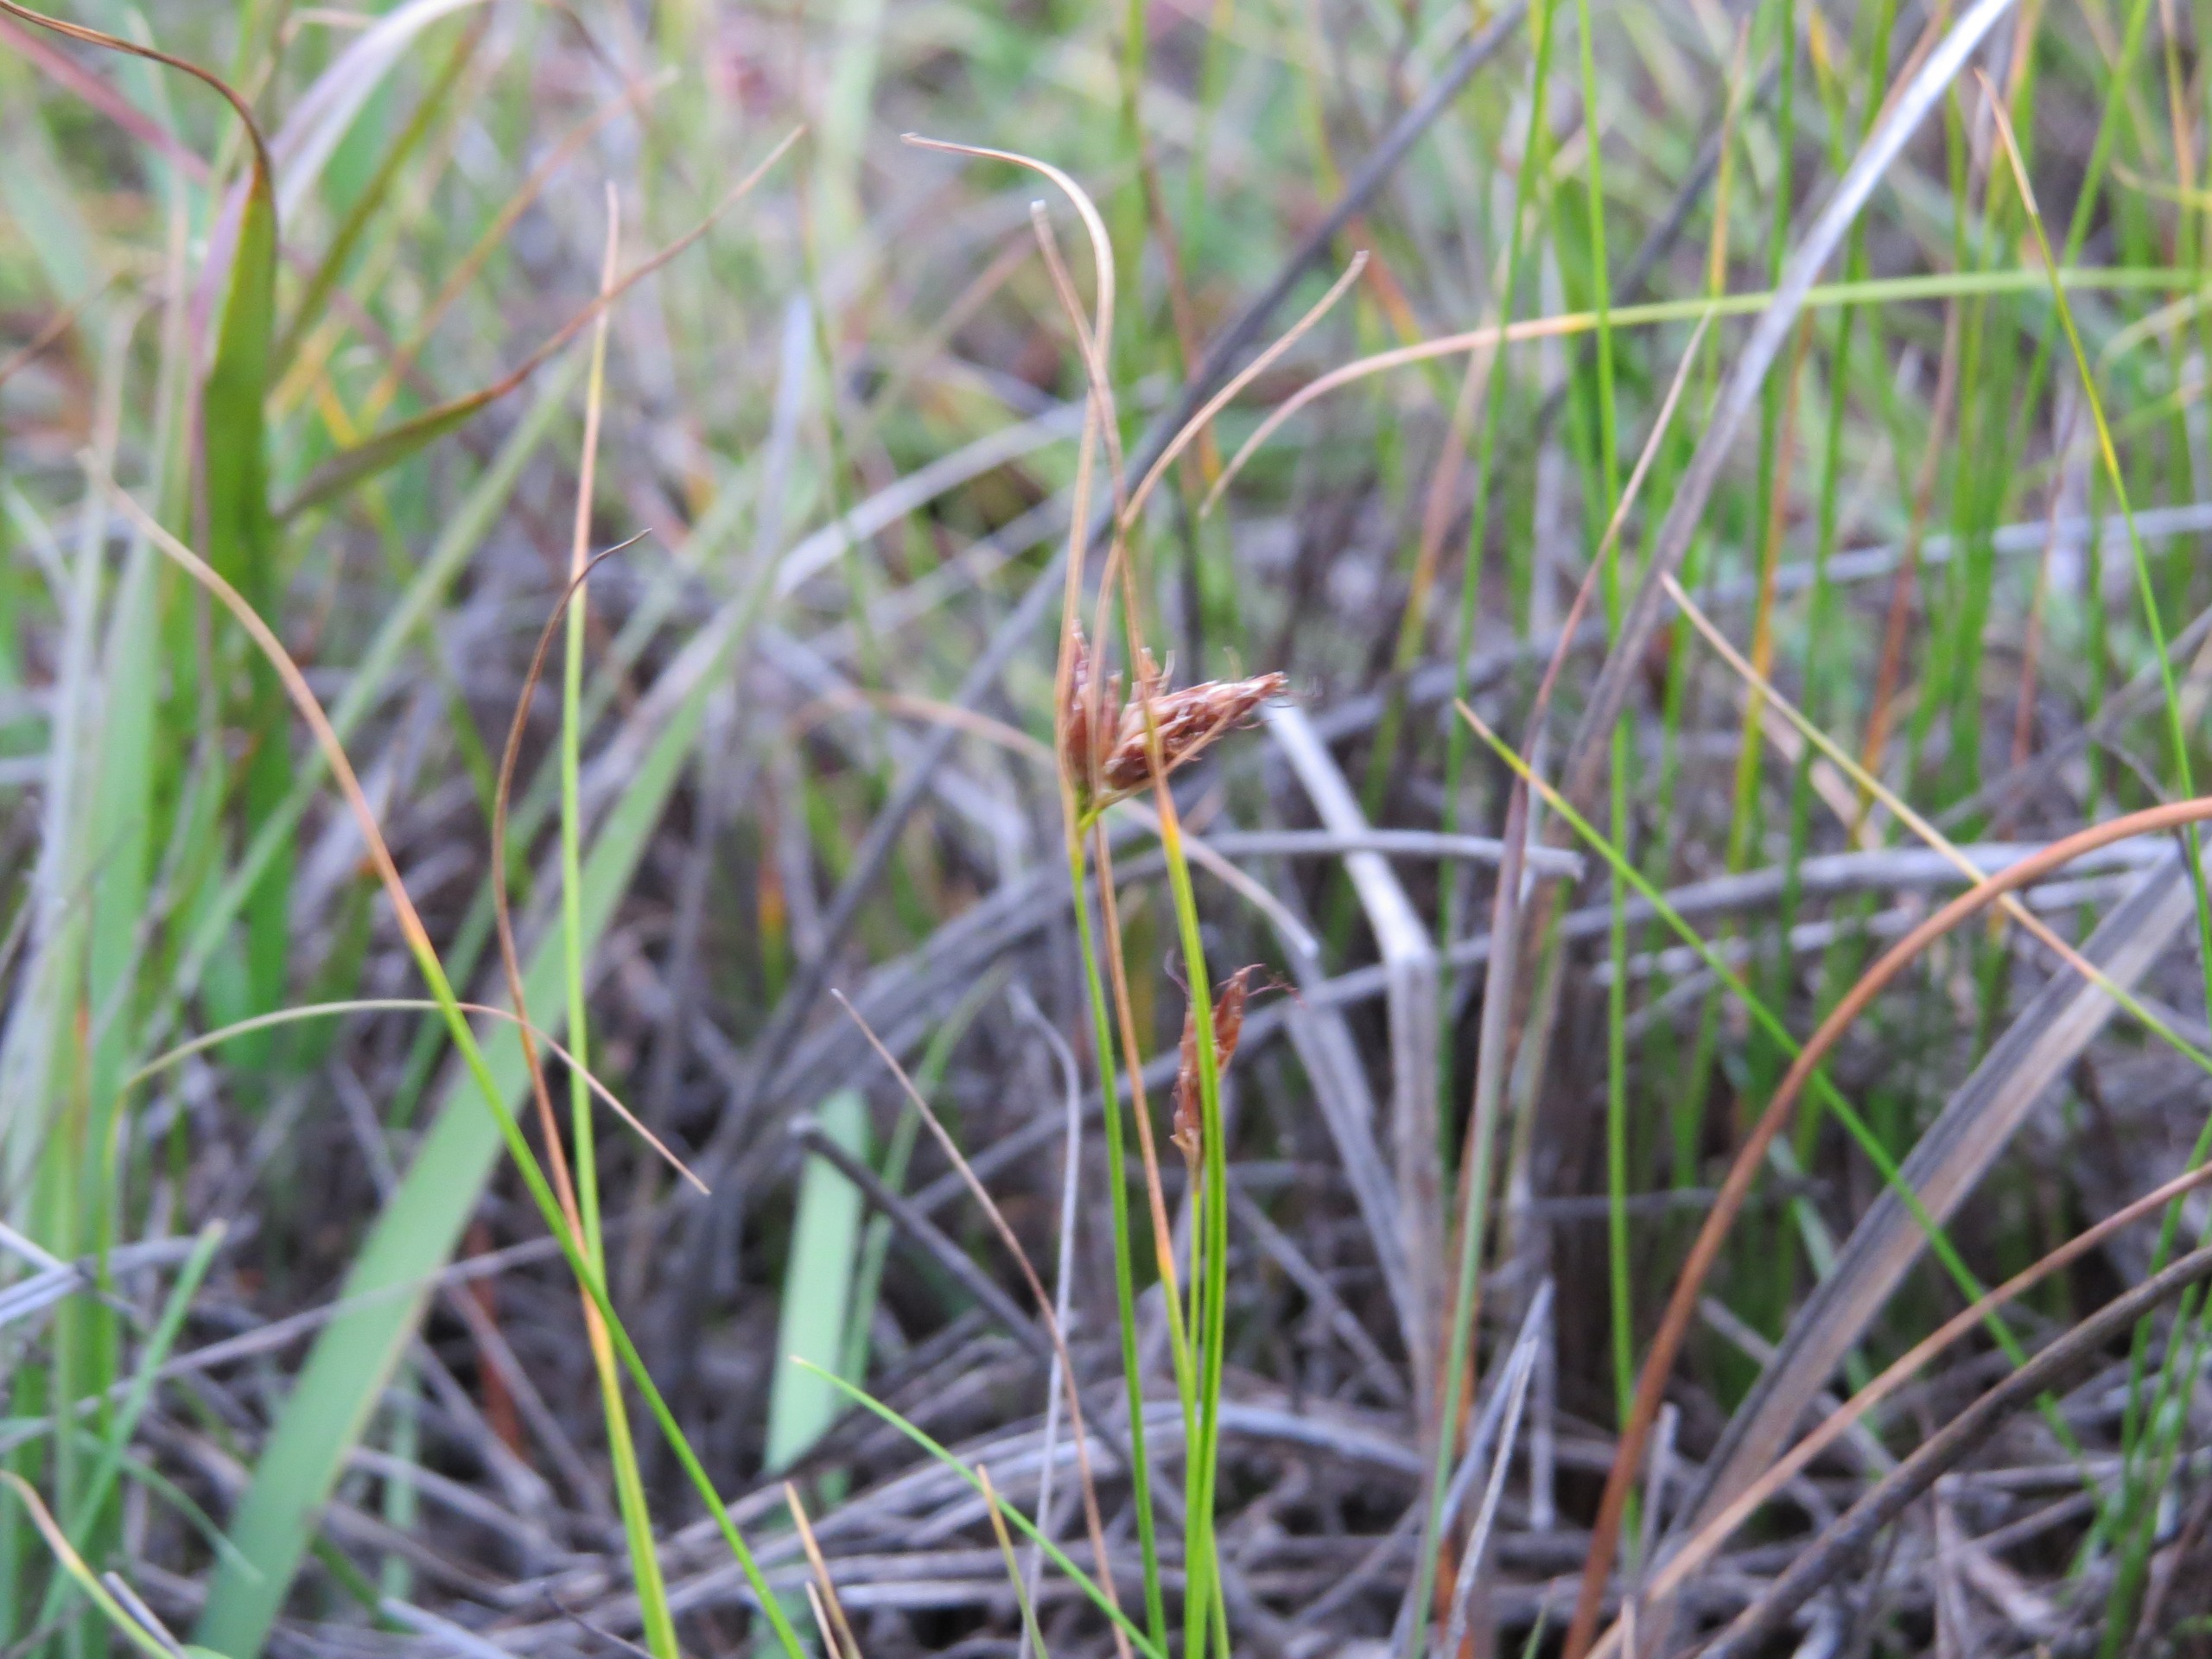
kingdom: Plantae
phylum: Tracheophyta
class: Liliopsida
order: Poales
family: Cyperaceae
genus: Rhynchospora
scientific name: Rhynchospora fusca
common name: Brun næbfrø
